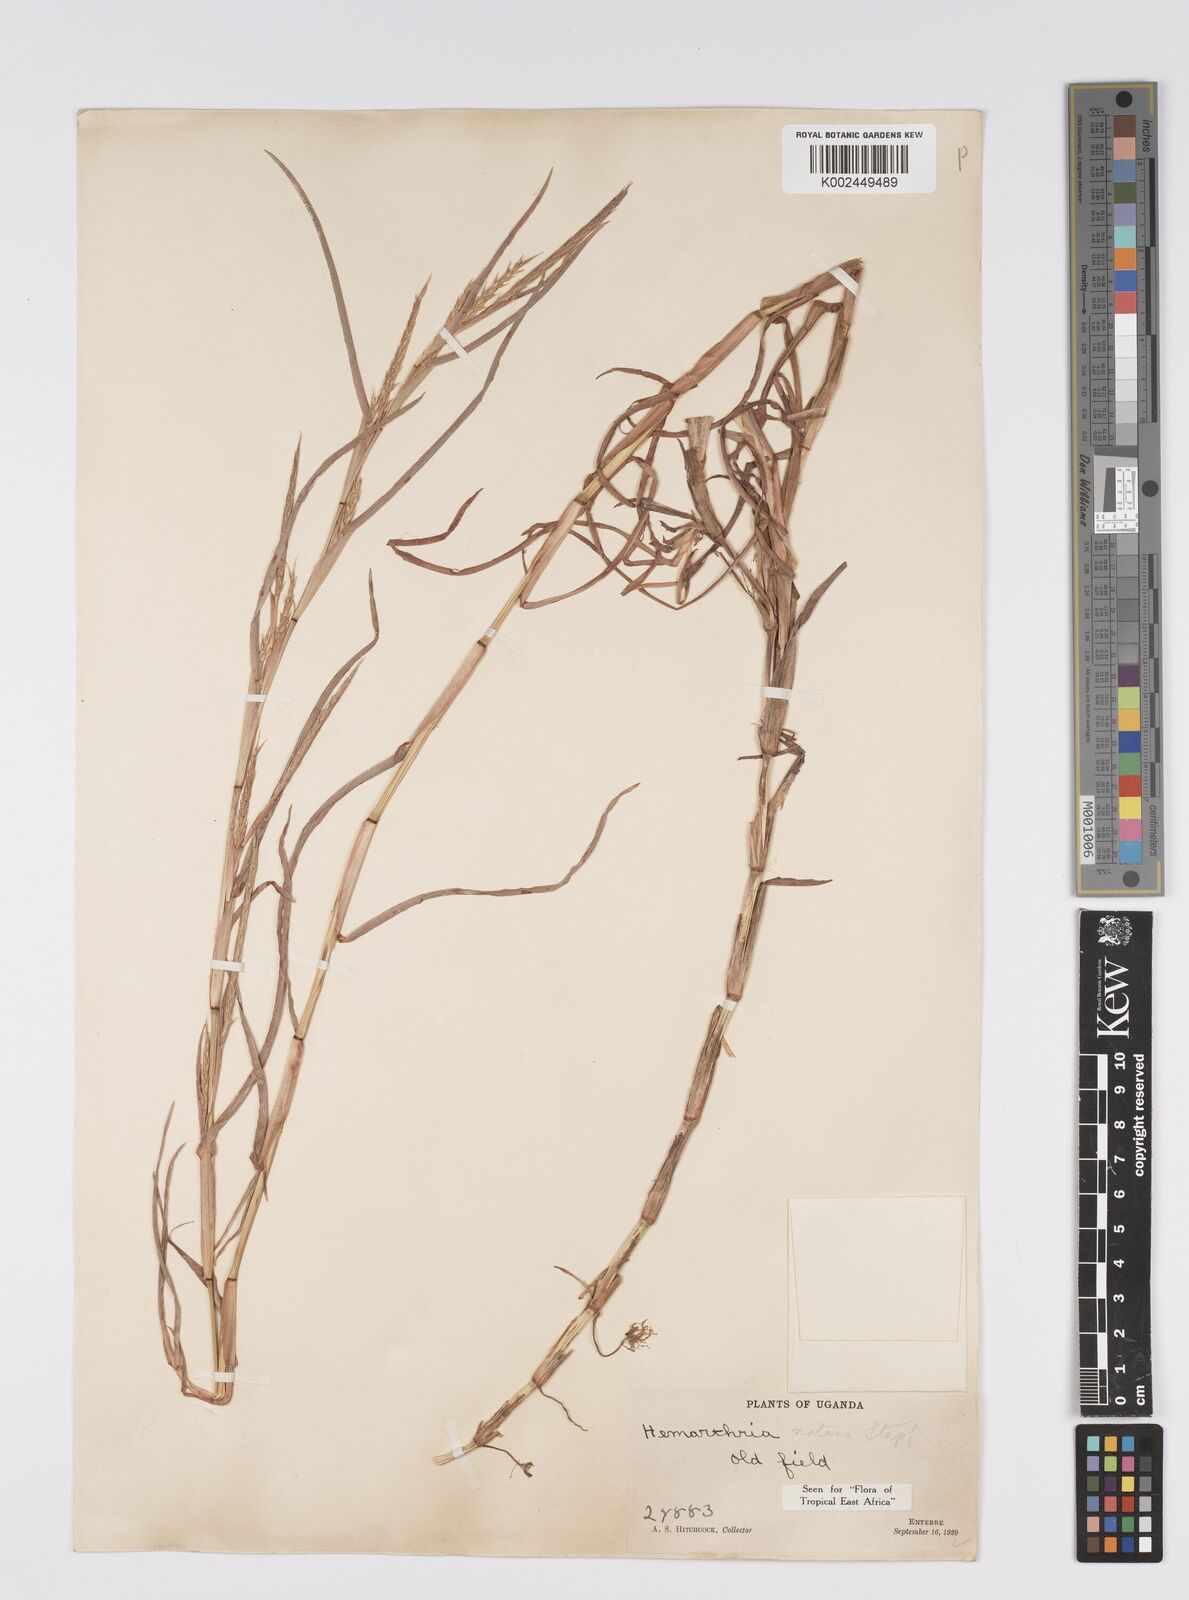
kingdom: Plantae
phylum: Tracheophyta
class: Liliopsida
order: Poales
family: Poaceae
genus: Hemarthria
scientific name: Hemarthria natans
